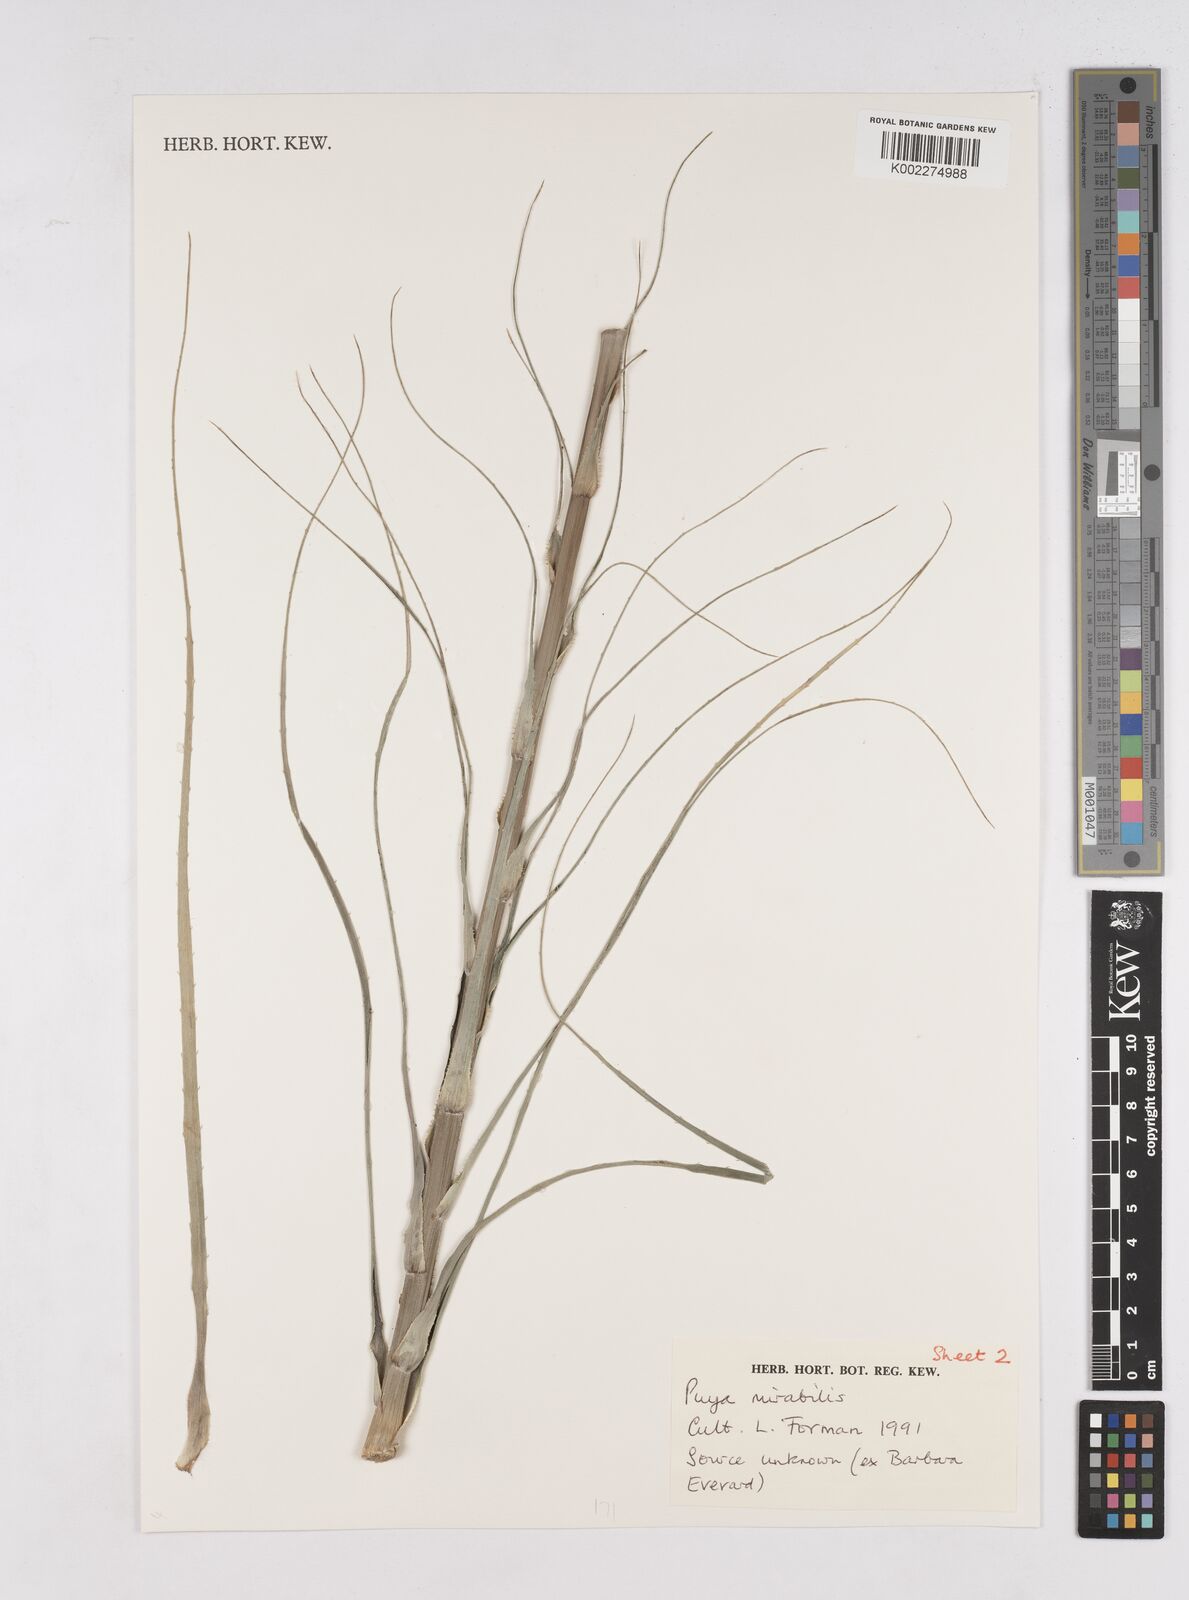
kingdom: Plantae
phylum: Tracheophyta
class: Liliopsida
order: Poales
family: Bromeliaceae
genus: Puya
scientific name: Puya
